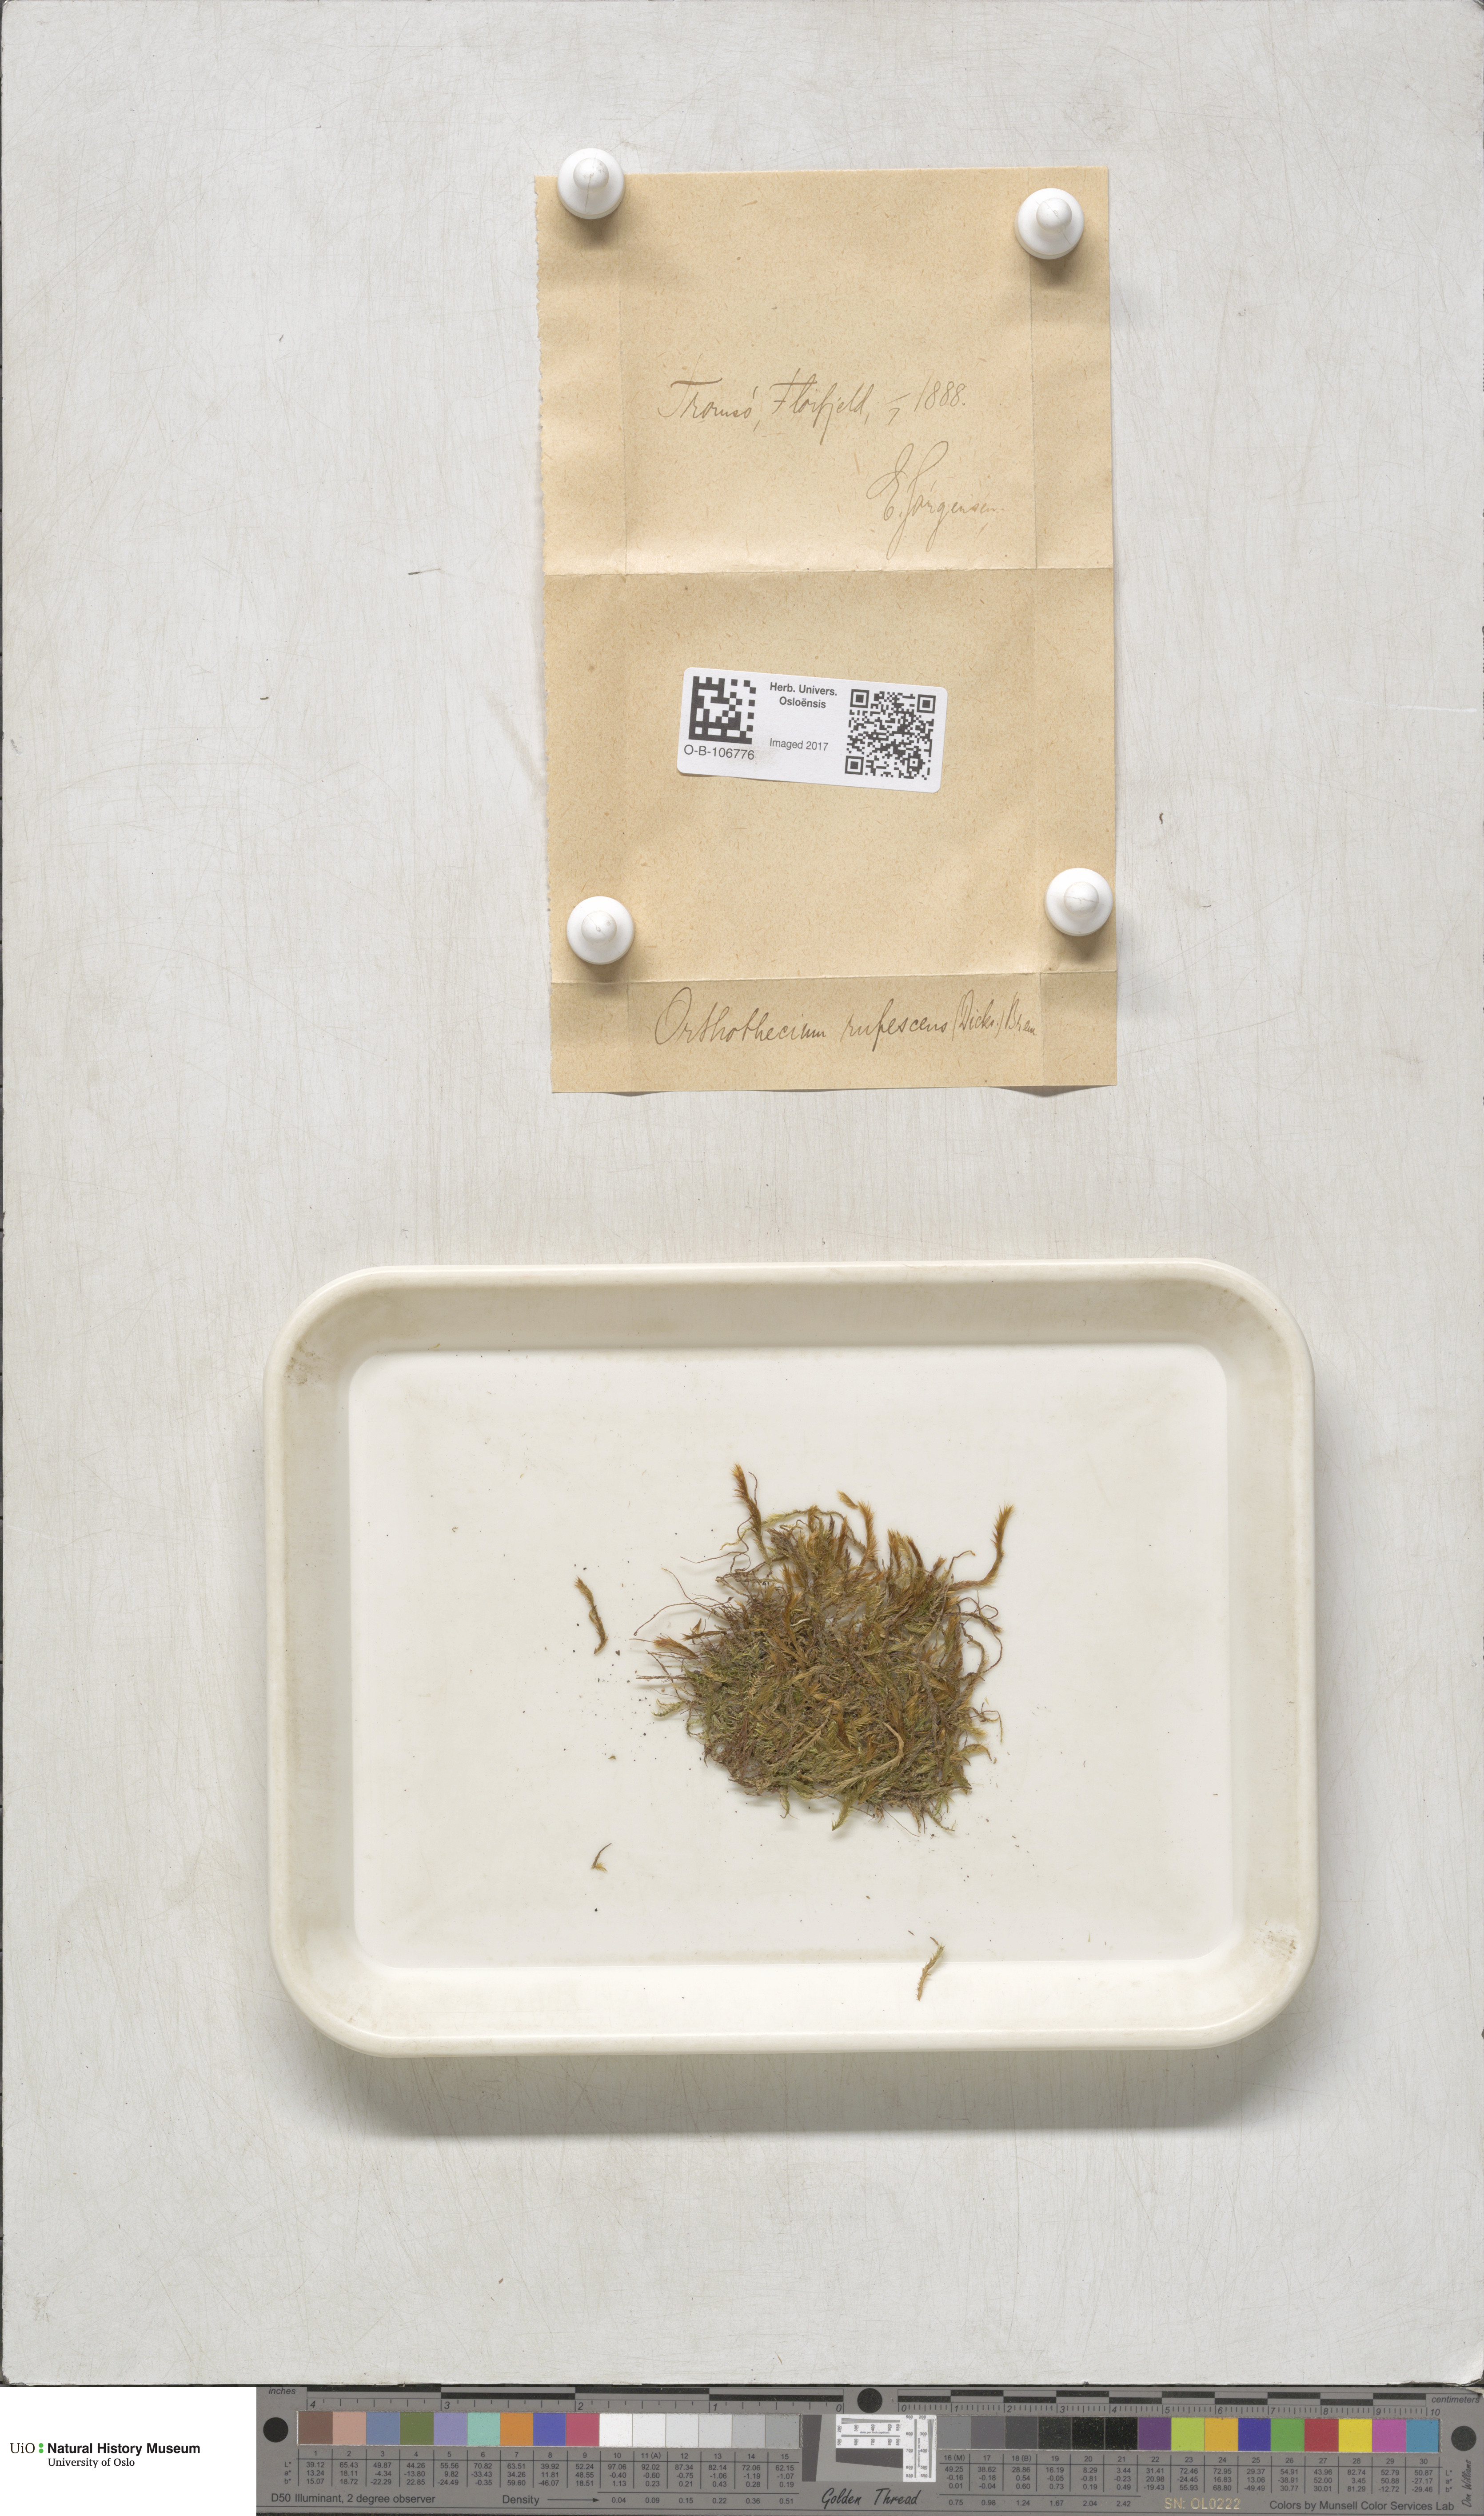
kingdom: Plantae
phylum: Bryophyta
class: Bryopsida
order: Hypnales
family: Plagiotheciaceae
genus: Orthothecium
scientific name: Orthothecium rufescens
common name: Red leskea
